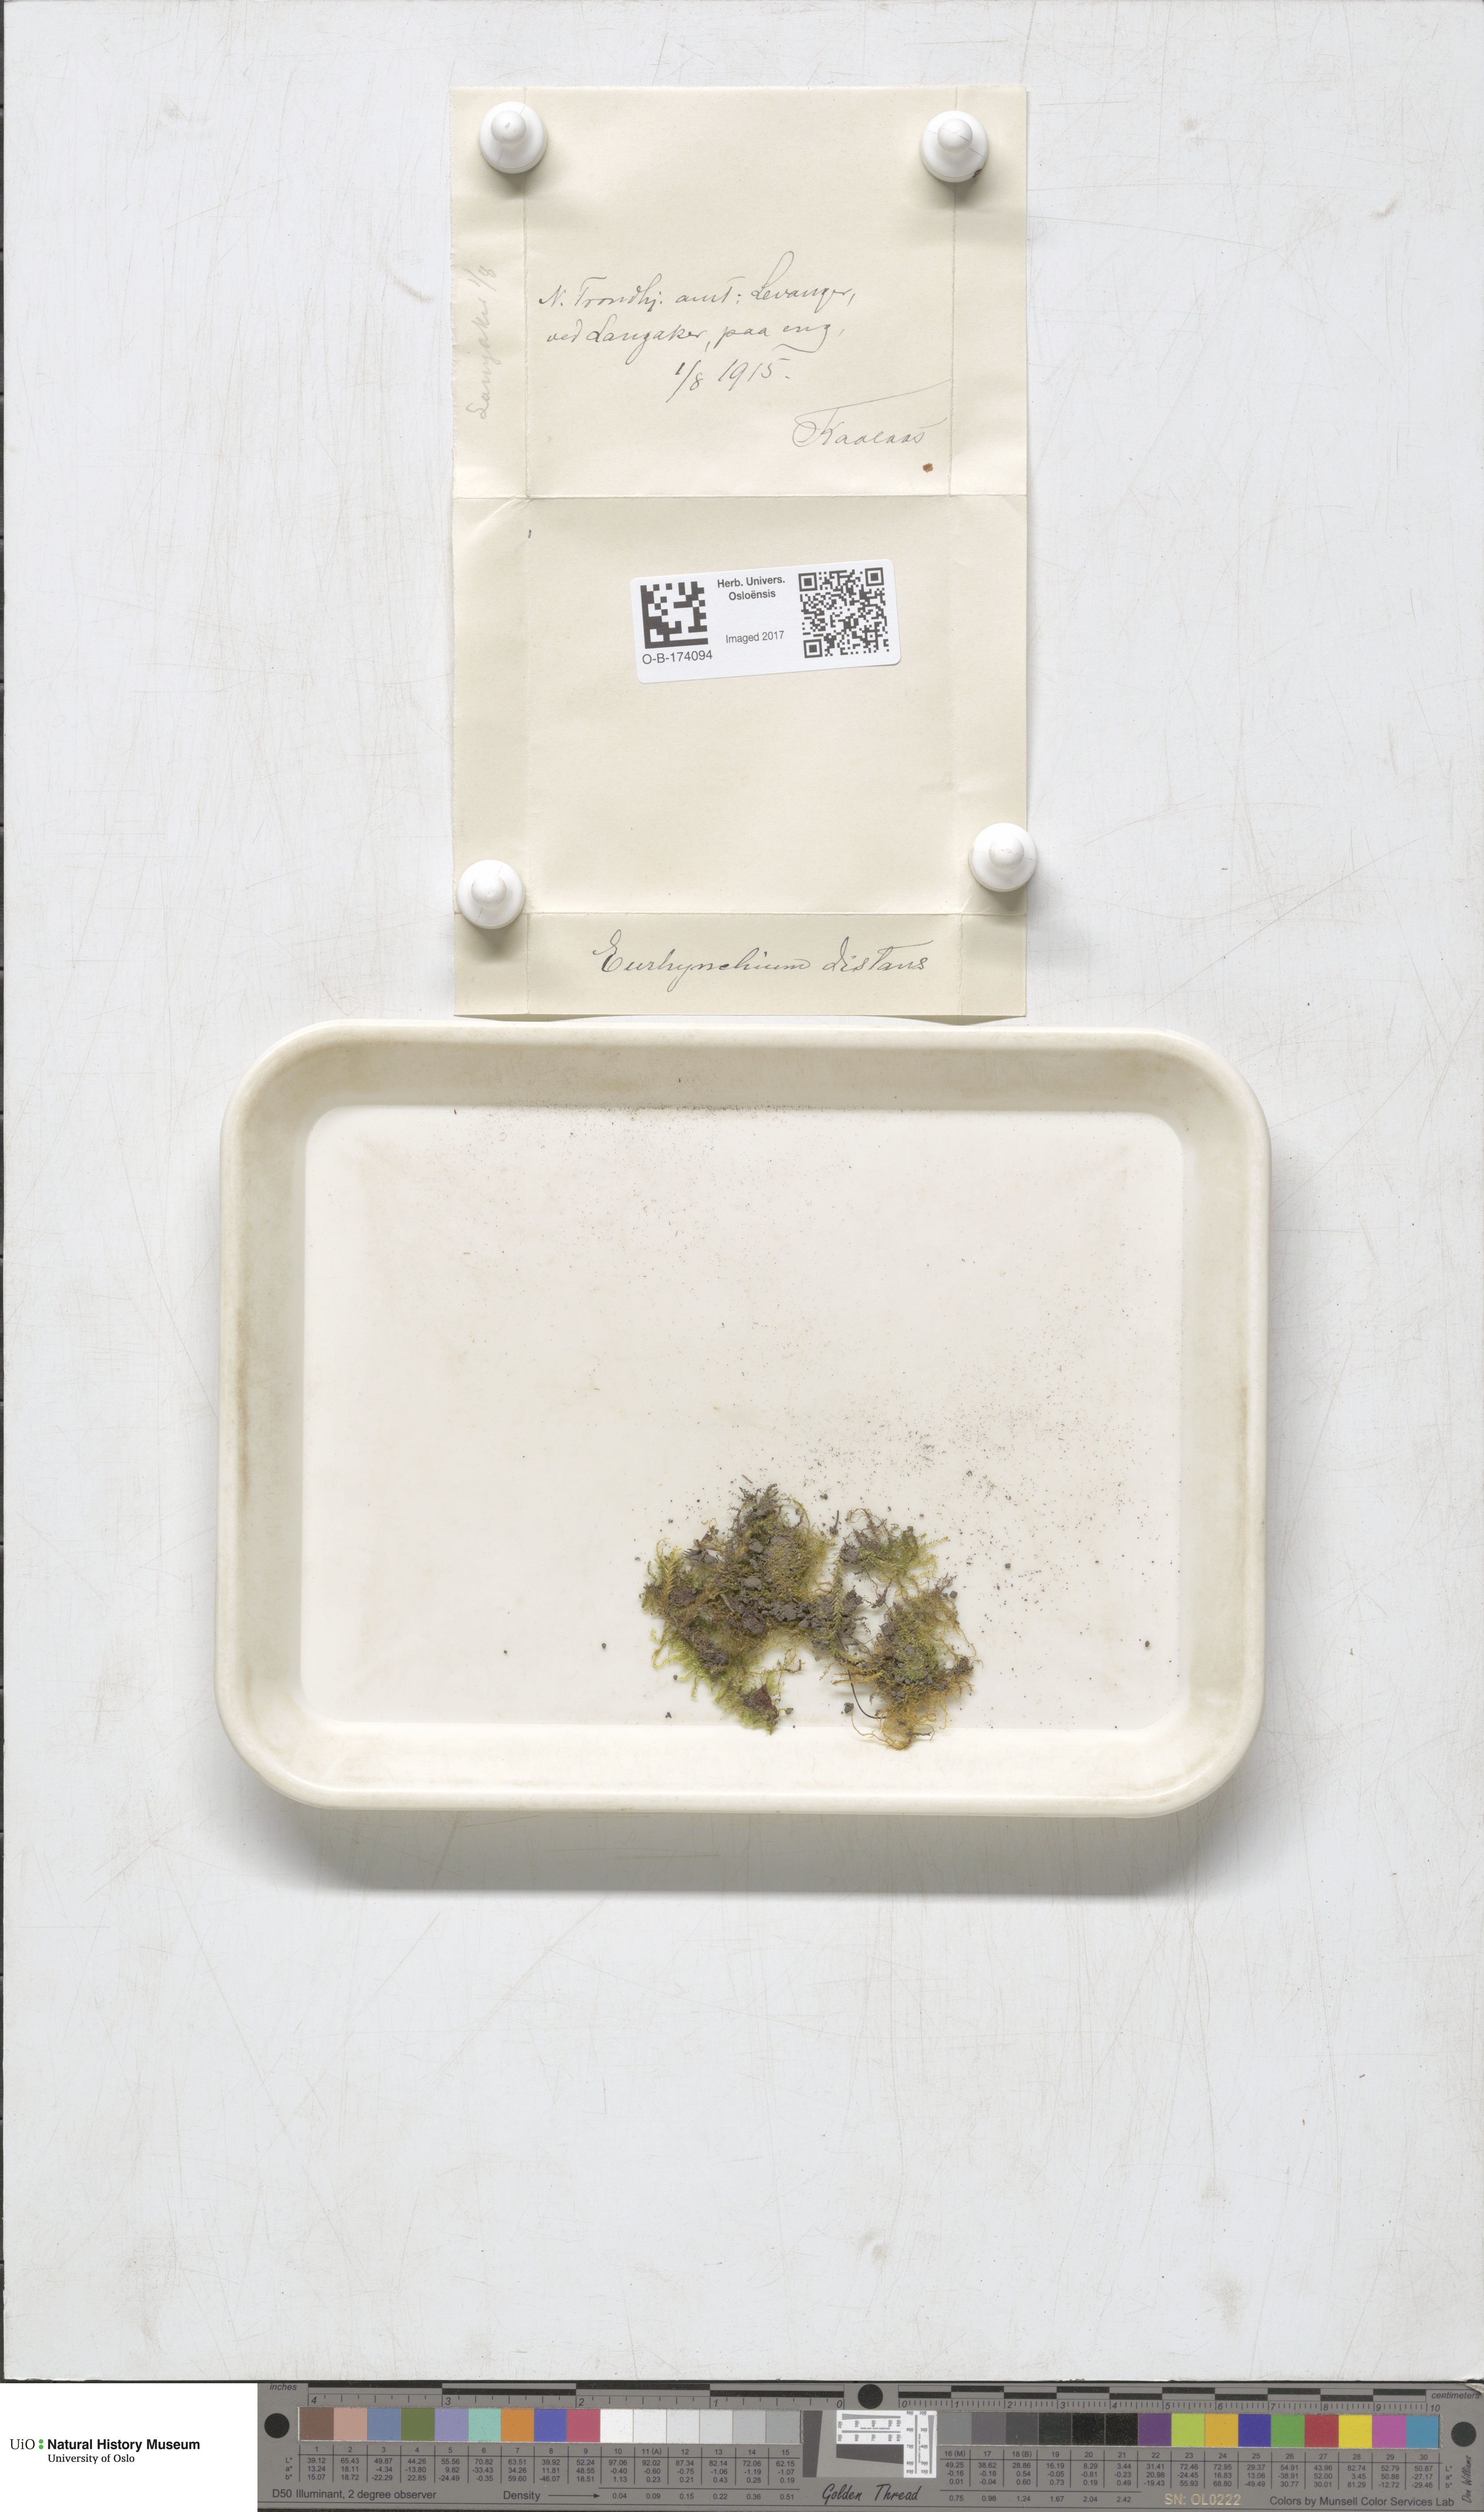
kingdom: Plantae
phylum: Bryophyta
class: Bryopsida
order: Hypnales
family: Brachytheciaceae
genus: Oxyrrhynchium
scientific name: Oxyrrhynchium hians
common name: Spreading beaked moss
